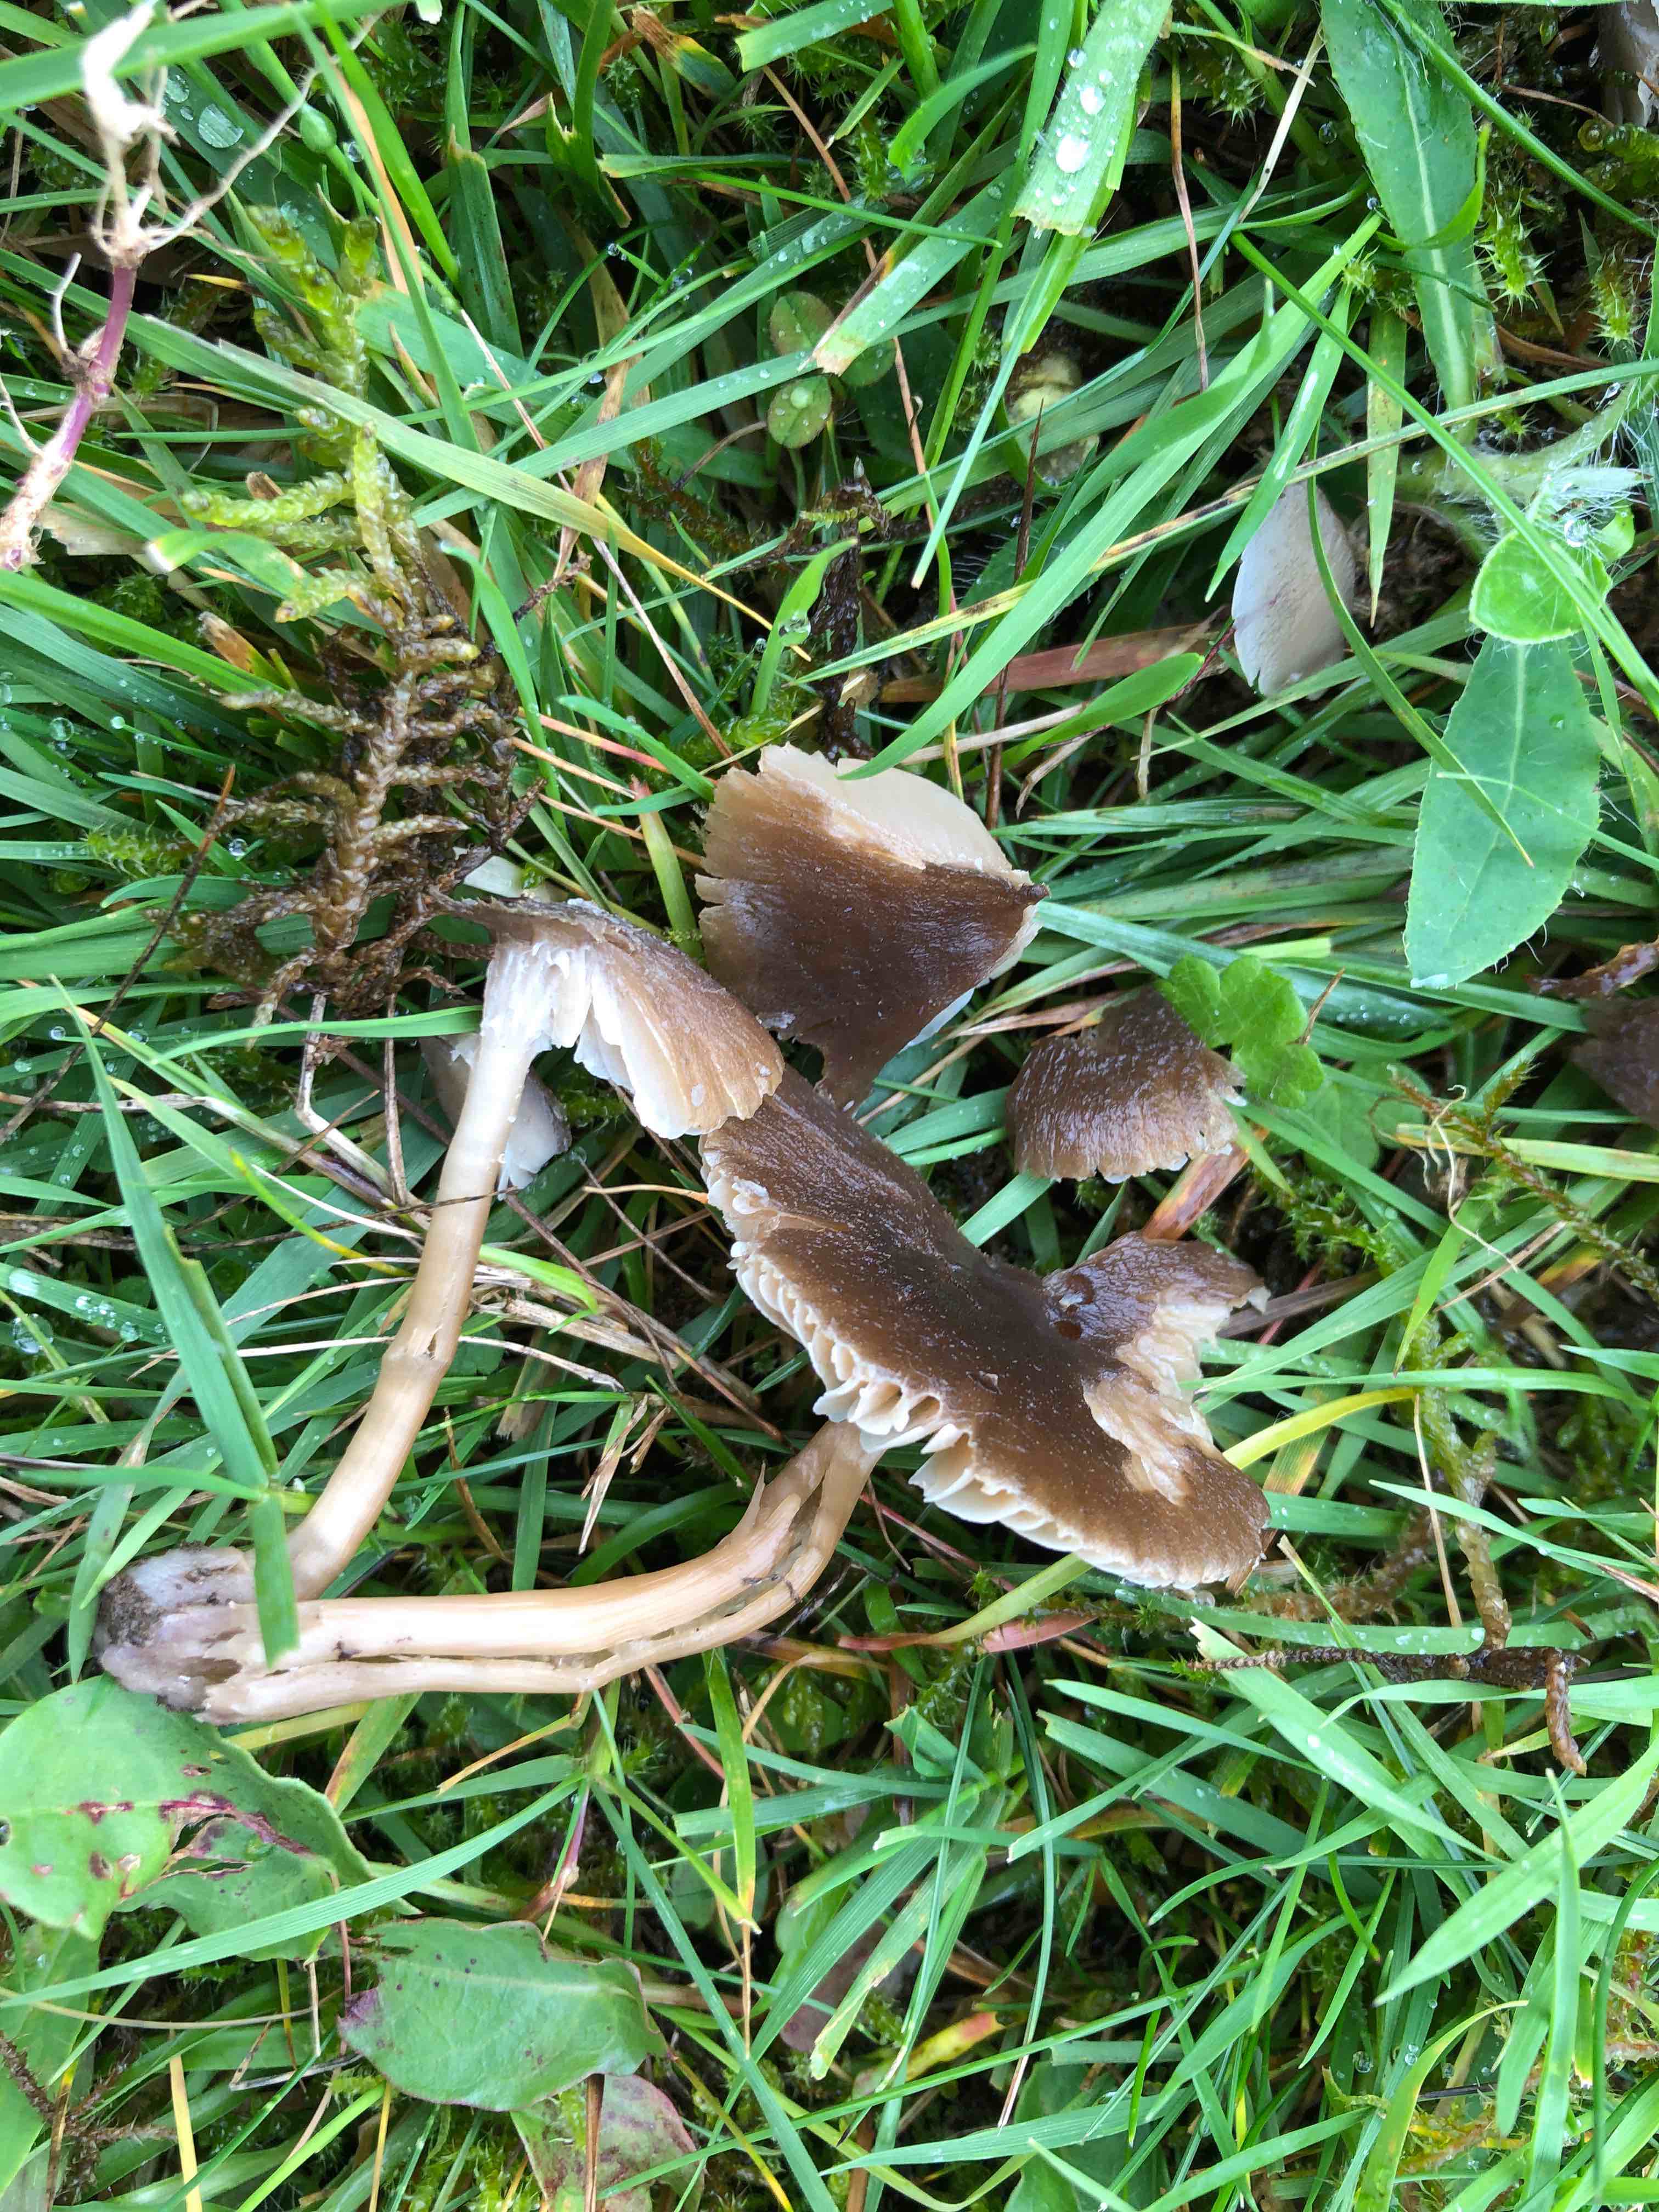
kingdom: Fungi
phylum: Basidiomycota
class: Agaricomycetes
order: Agaricales
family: Hygrophoraceae
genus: Neohygrocybe
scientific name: Neohygrocybe nitrata
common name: stinkende vokshat
